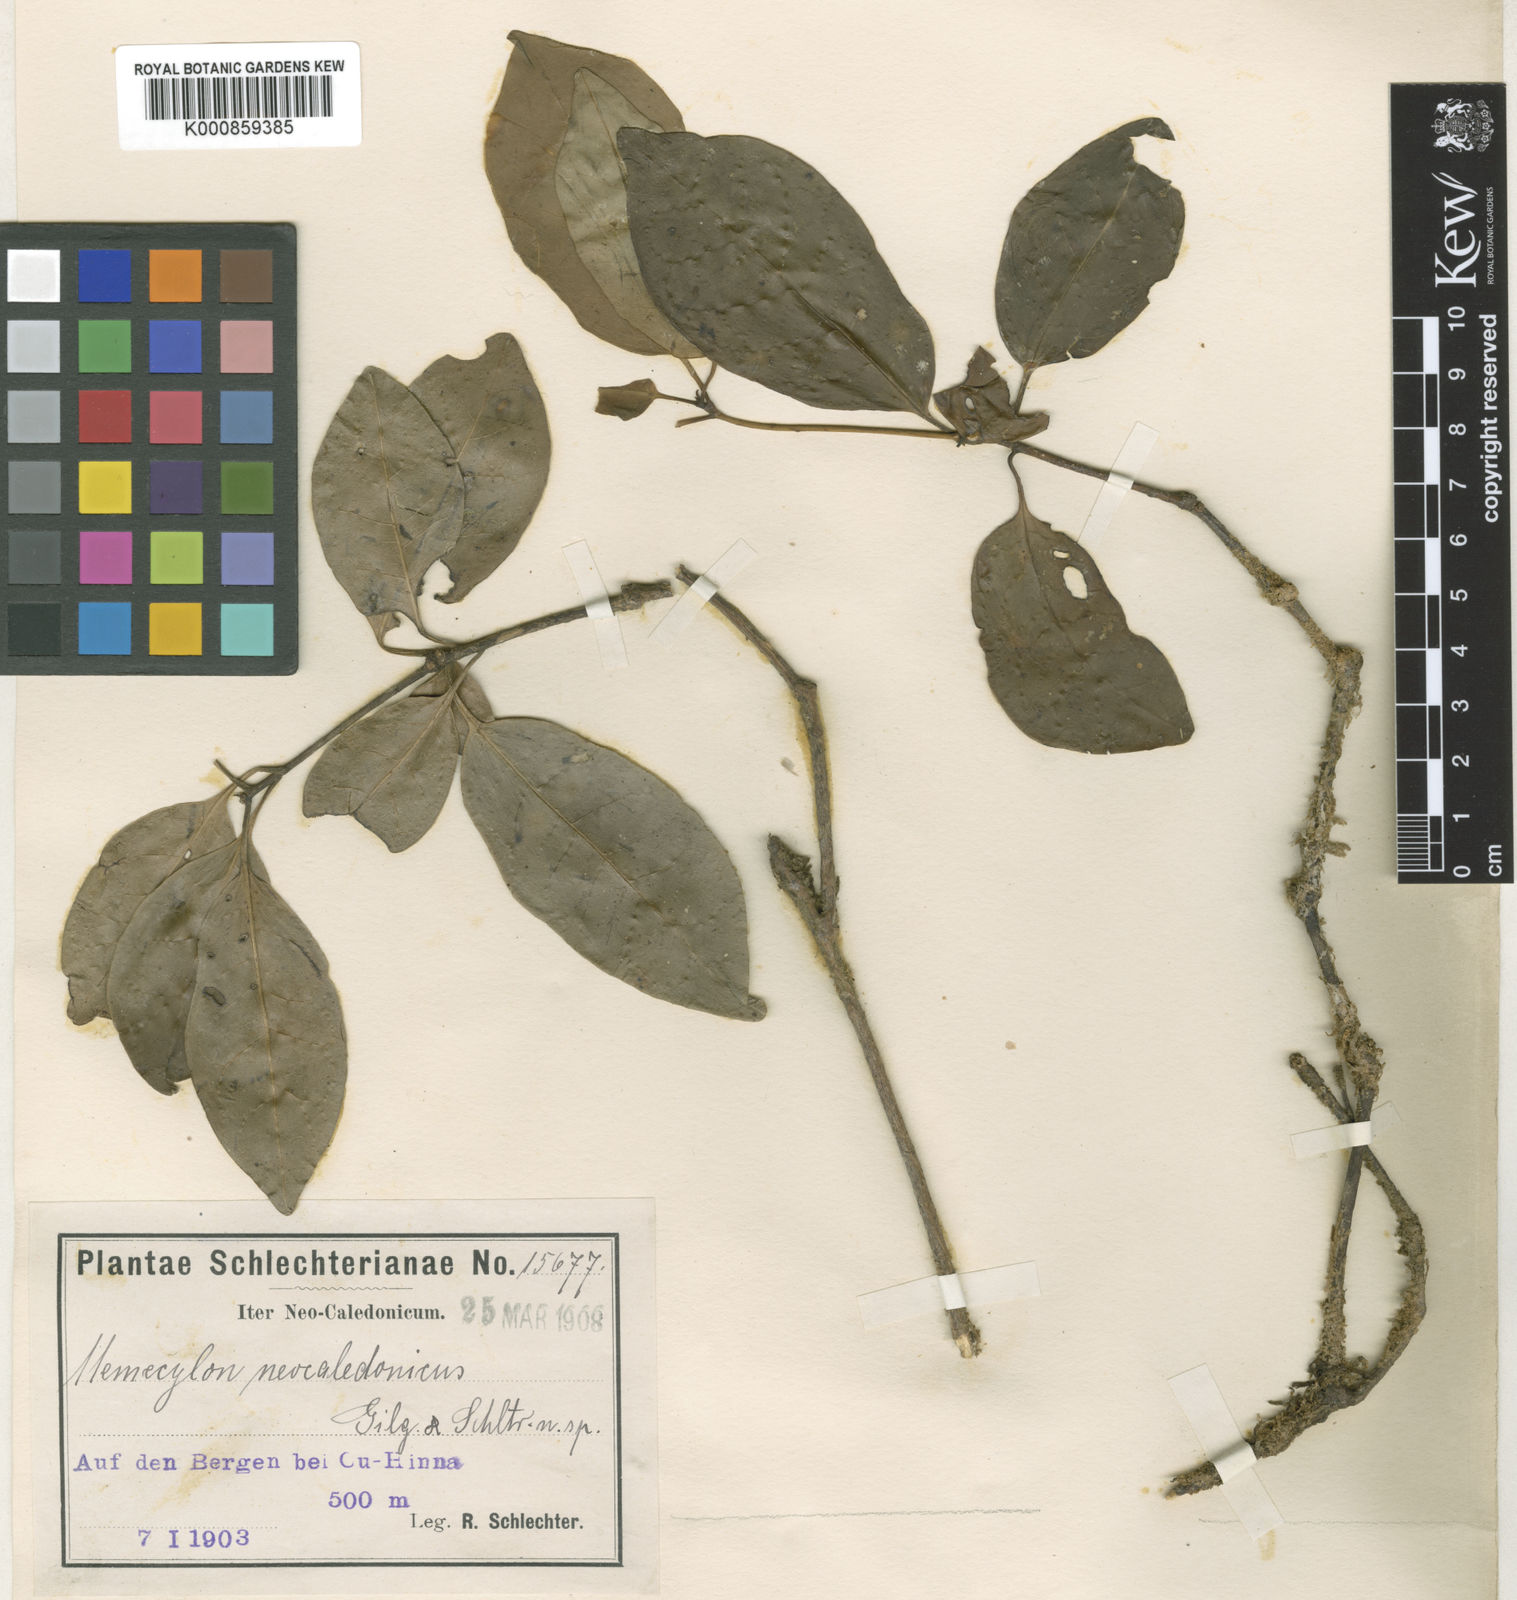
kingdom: Plantae
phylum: Tracheophyta
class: Magnoliopsida
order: Myrtales
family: Melastomataceae
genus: Memecylon
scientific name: Memecylon
